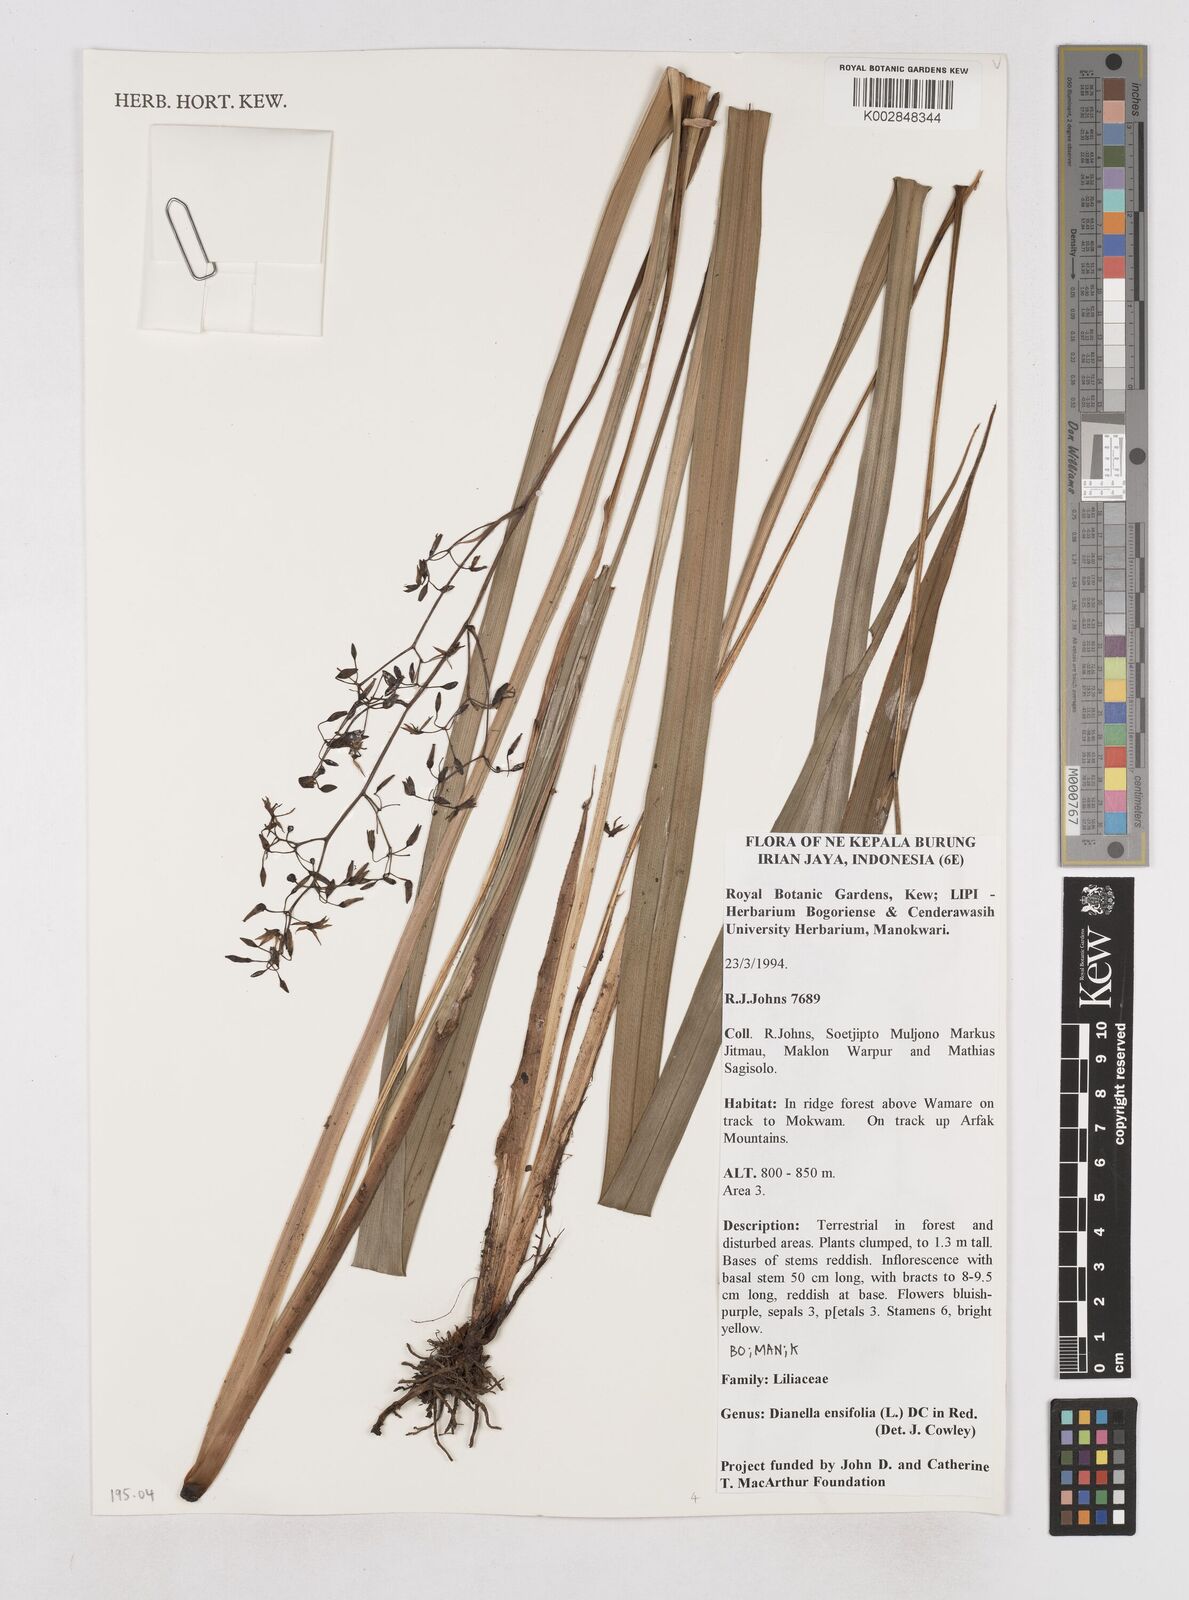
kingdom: Plantae
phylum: Tracheophyta
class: Liliopsida
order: Asparagales
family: Asphodelaceae
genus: Dianella
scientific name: Dianella ensifolia
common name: New zealand lilyplant
